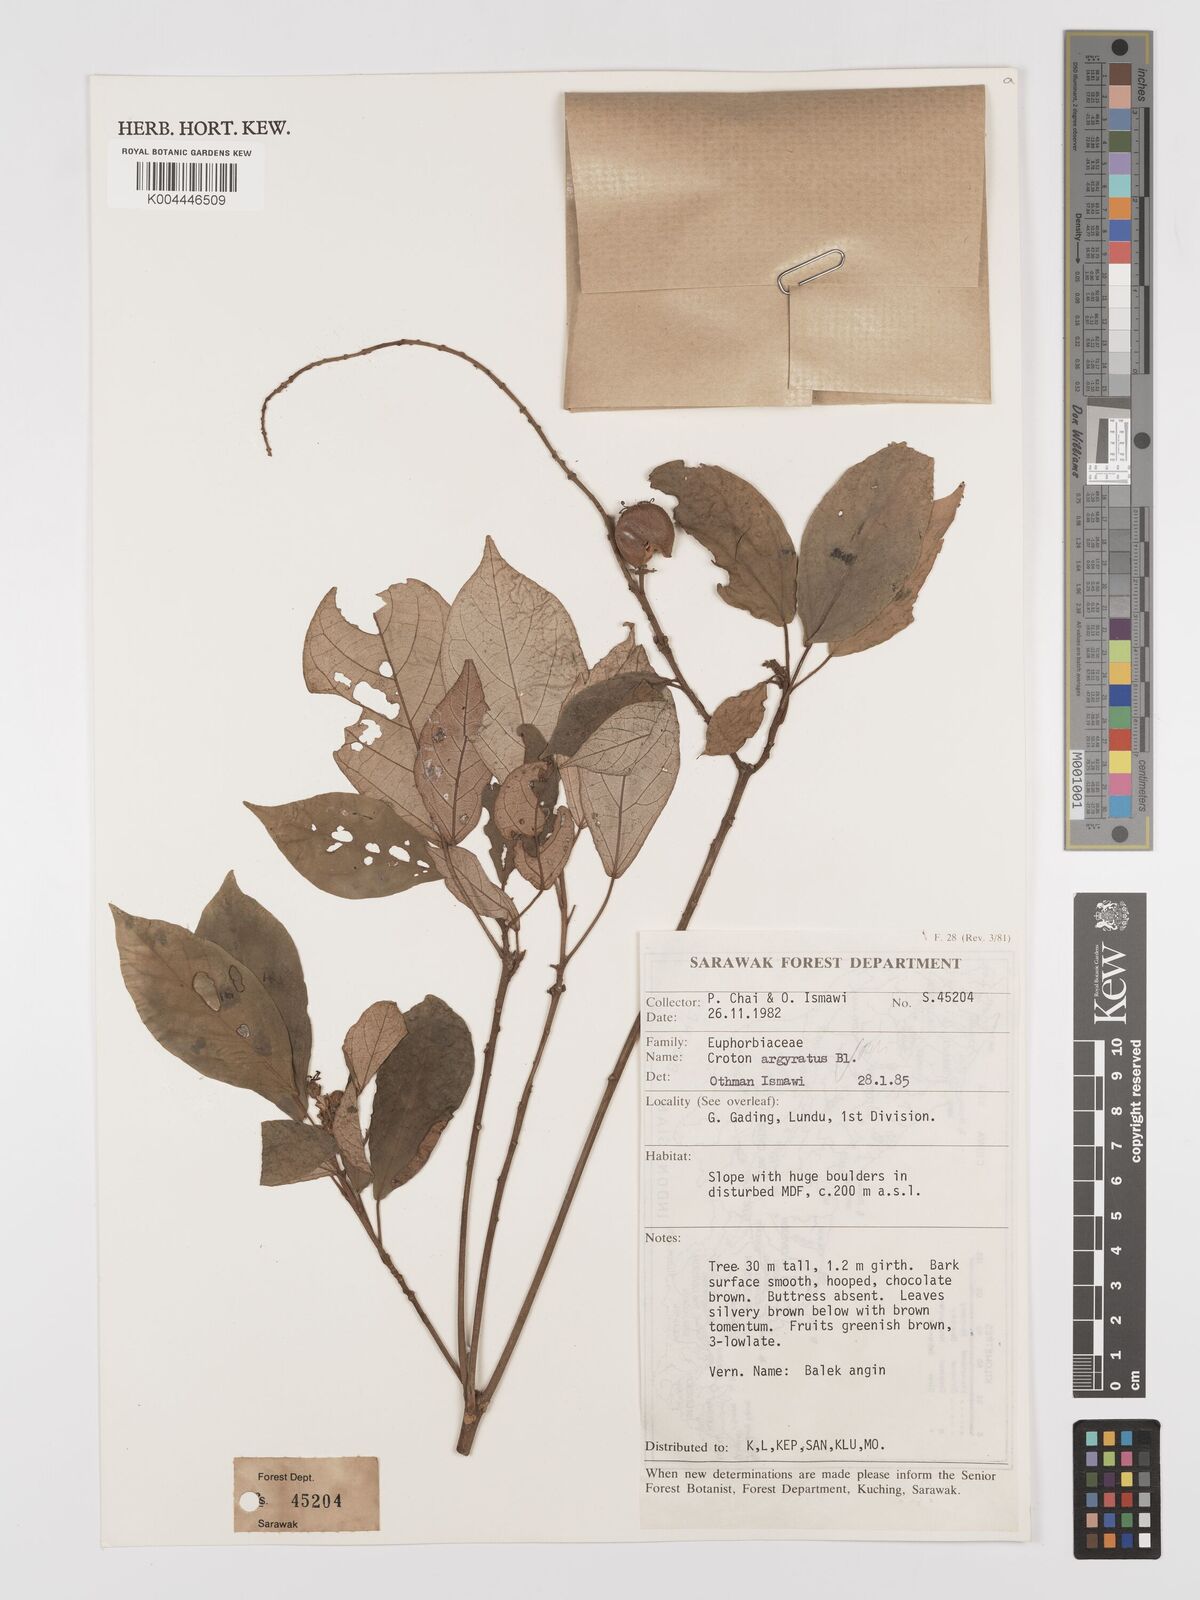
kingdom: Plantae
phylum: Tracheophyta
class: Magnoliopsida
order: Malpighiales
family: Euphorbiaceae
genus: Croton
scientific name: Croton argyratus
